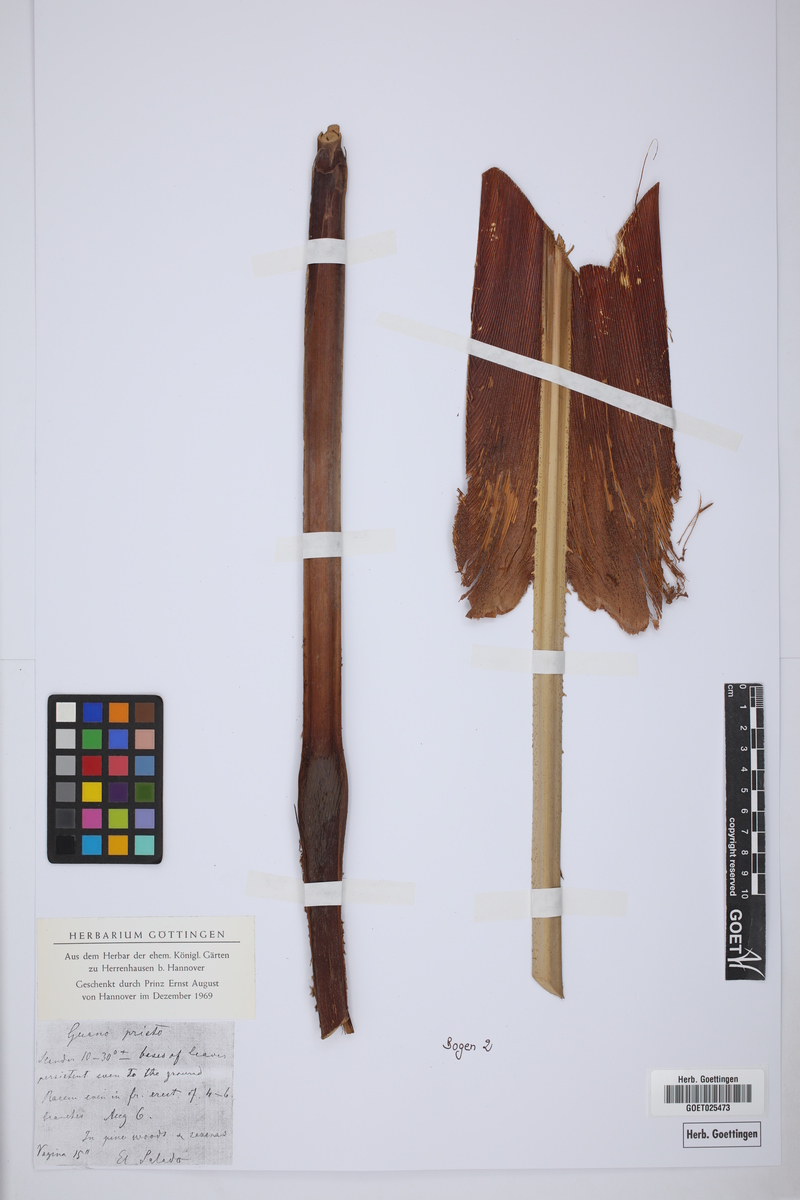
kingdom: Plantae
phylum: Tracheophyta
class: Liliopsida
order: Arecales
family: Arecaceae
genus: Acoelorraphe
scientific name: Acoelorraphe wrightii
